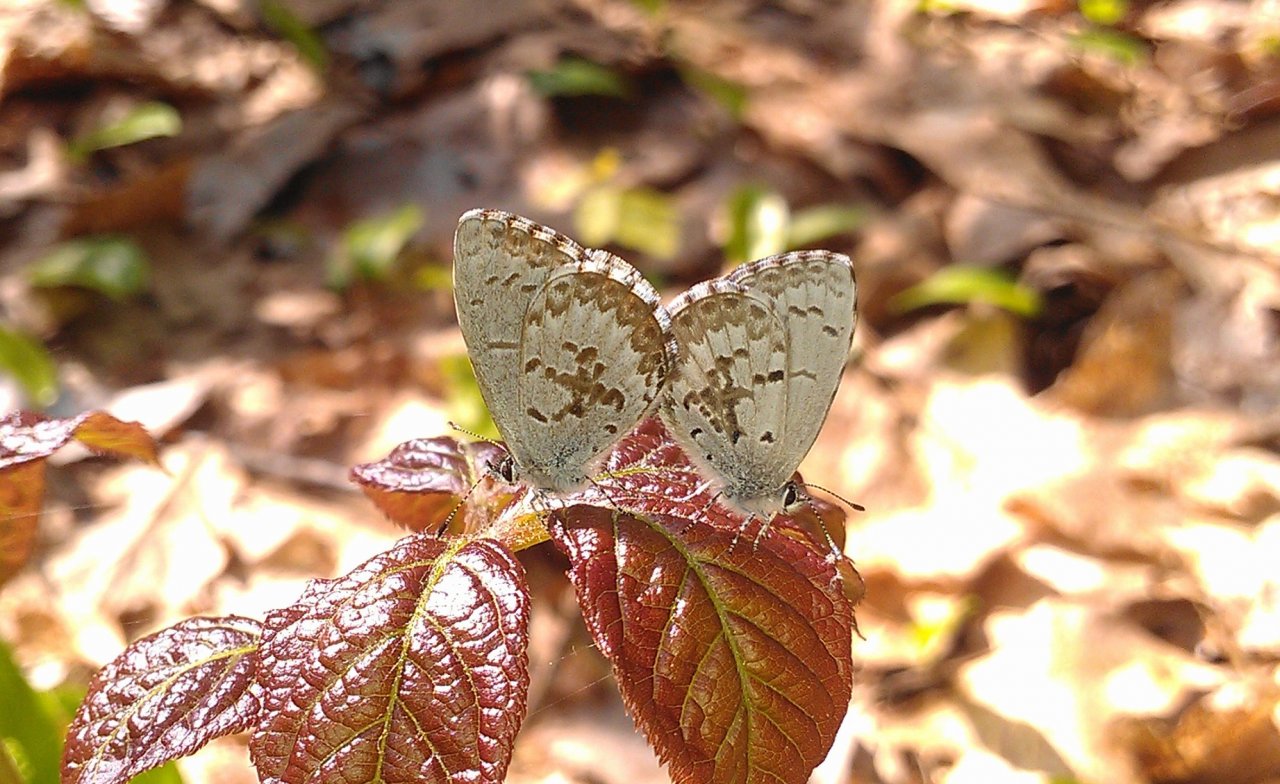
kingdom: Animalia
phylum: Arthropoda
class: Insecta
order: Lepidoptera
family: Lycaenidae
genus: Celastrina
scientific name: Celastrina lucia
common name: Northern Spring Azure
